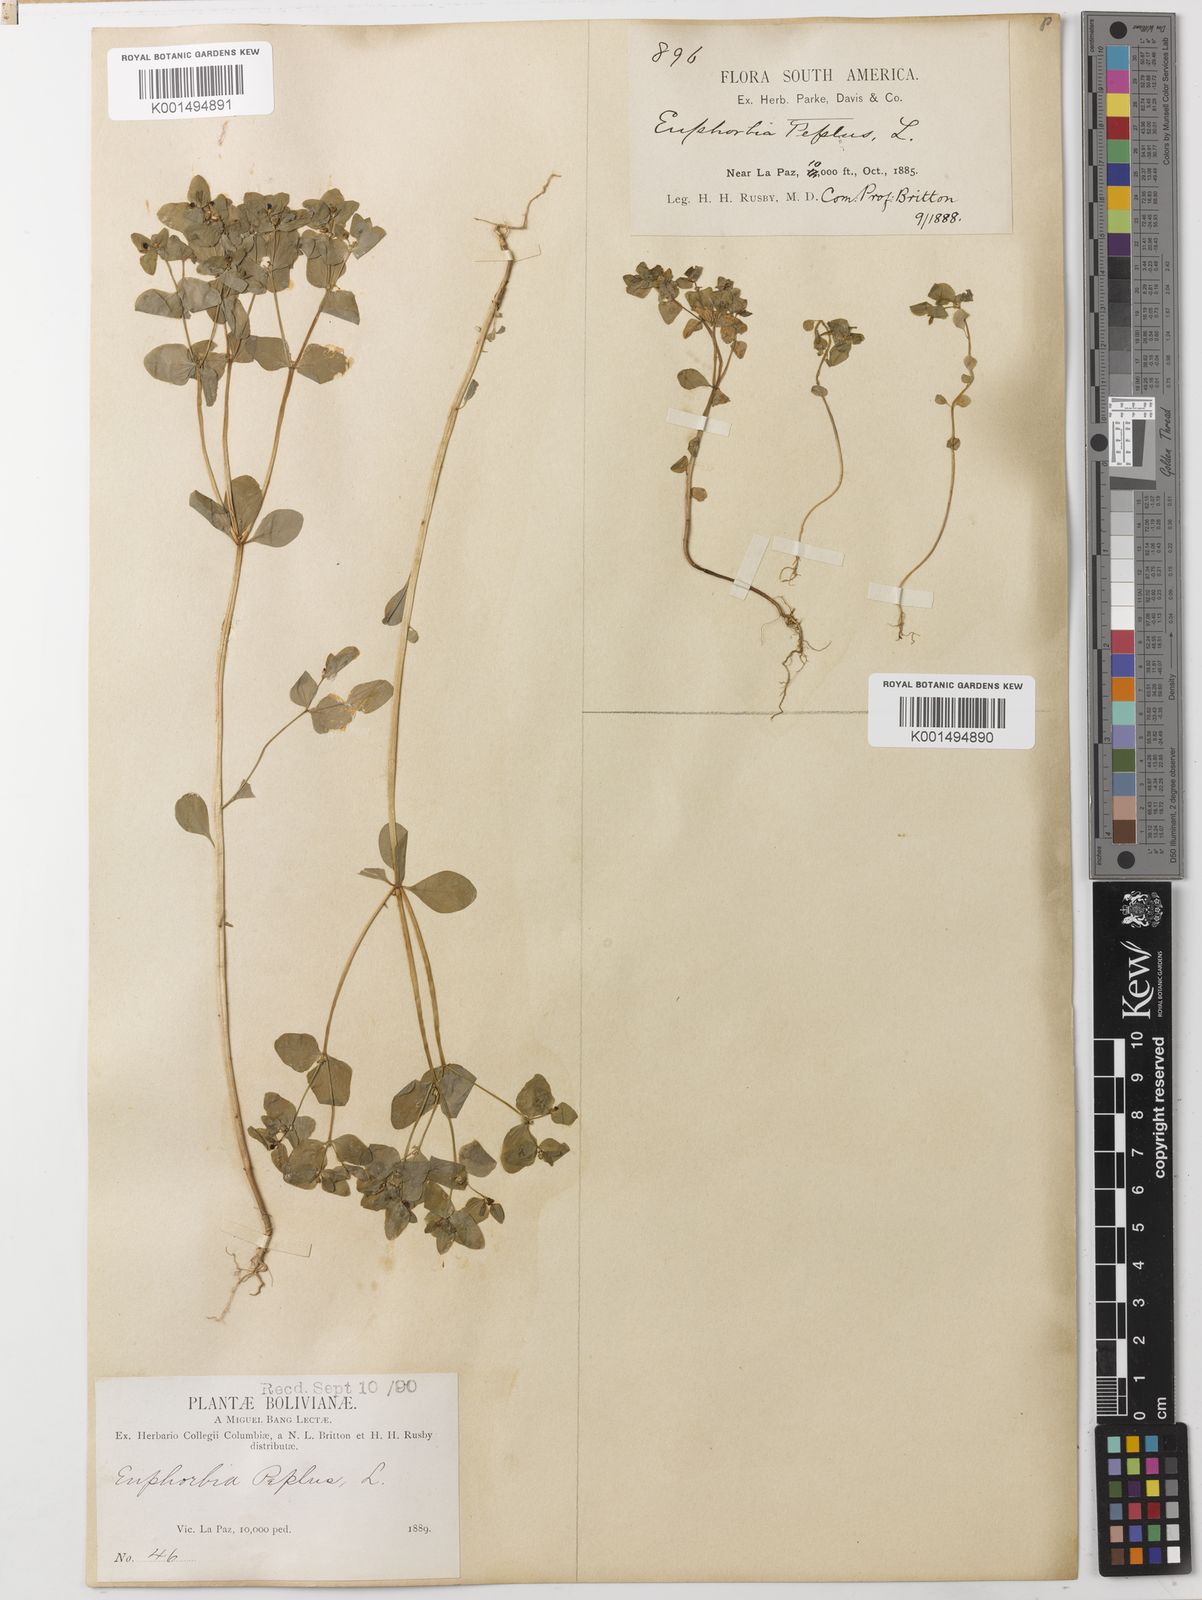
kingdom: Plantae
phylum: Tracheophyta
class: Magnoliopsida
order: Malpighiales
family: Euphorbiaceae
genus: Euphorbia
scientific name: Euphorbia peplus
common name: Petty spurge
